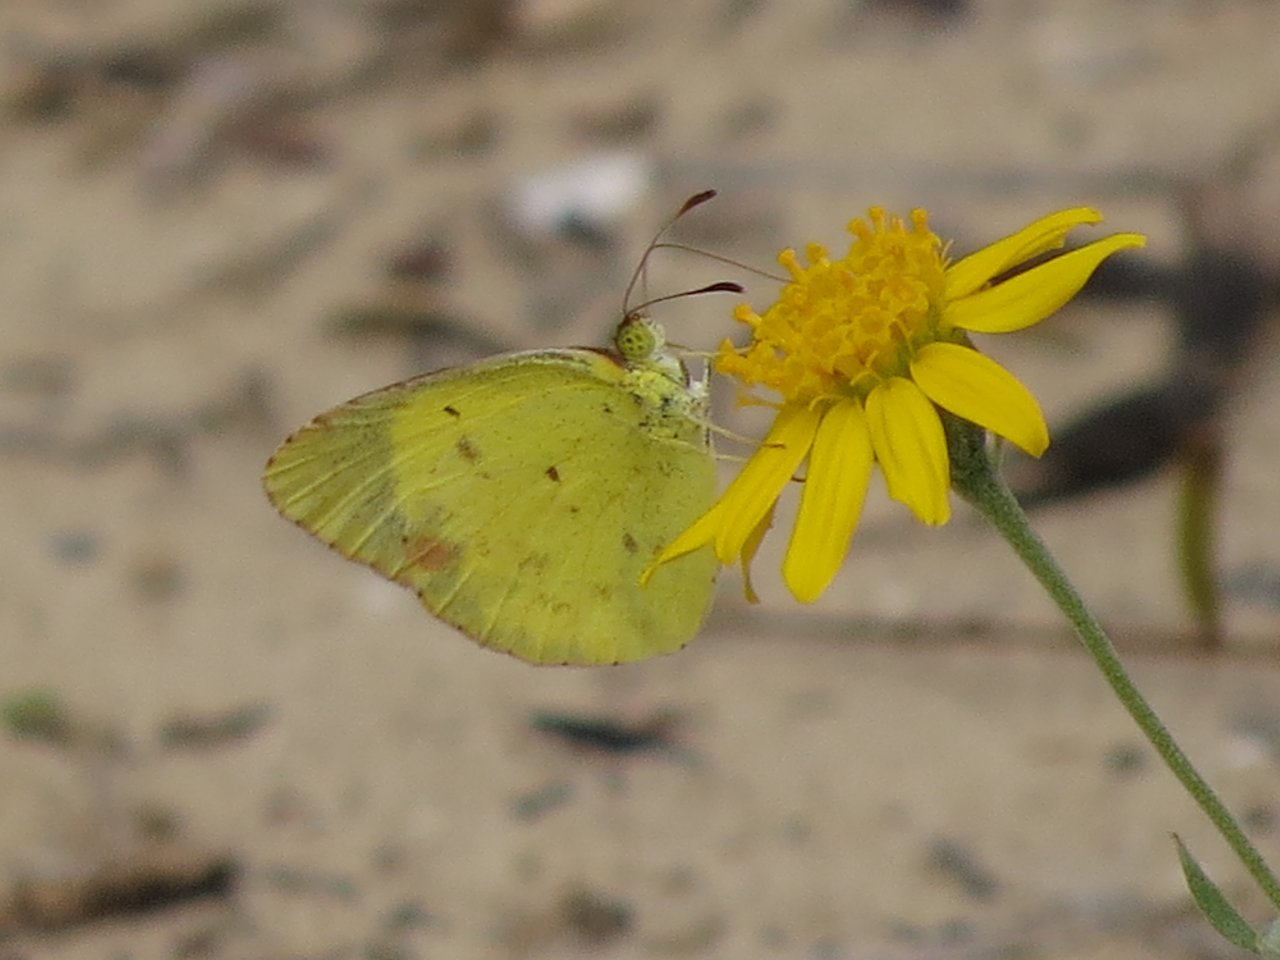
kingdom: Animalia
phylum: Arthropoda
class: Insecta
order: Lepidoptera
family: Pieridae
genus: Pyrisitia
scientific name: Pyrisitia lisa
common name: Little Yellow
